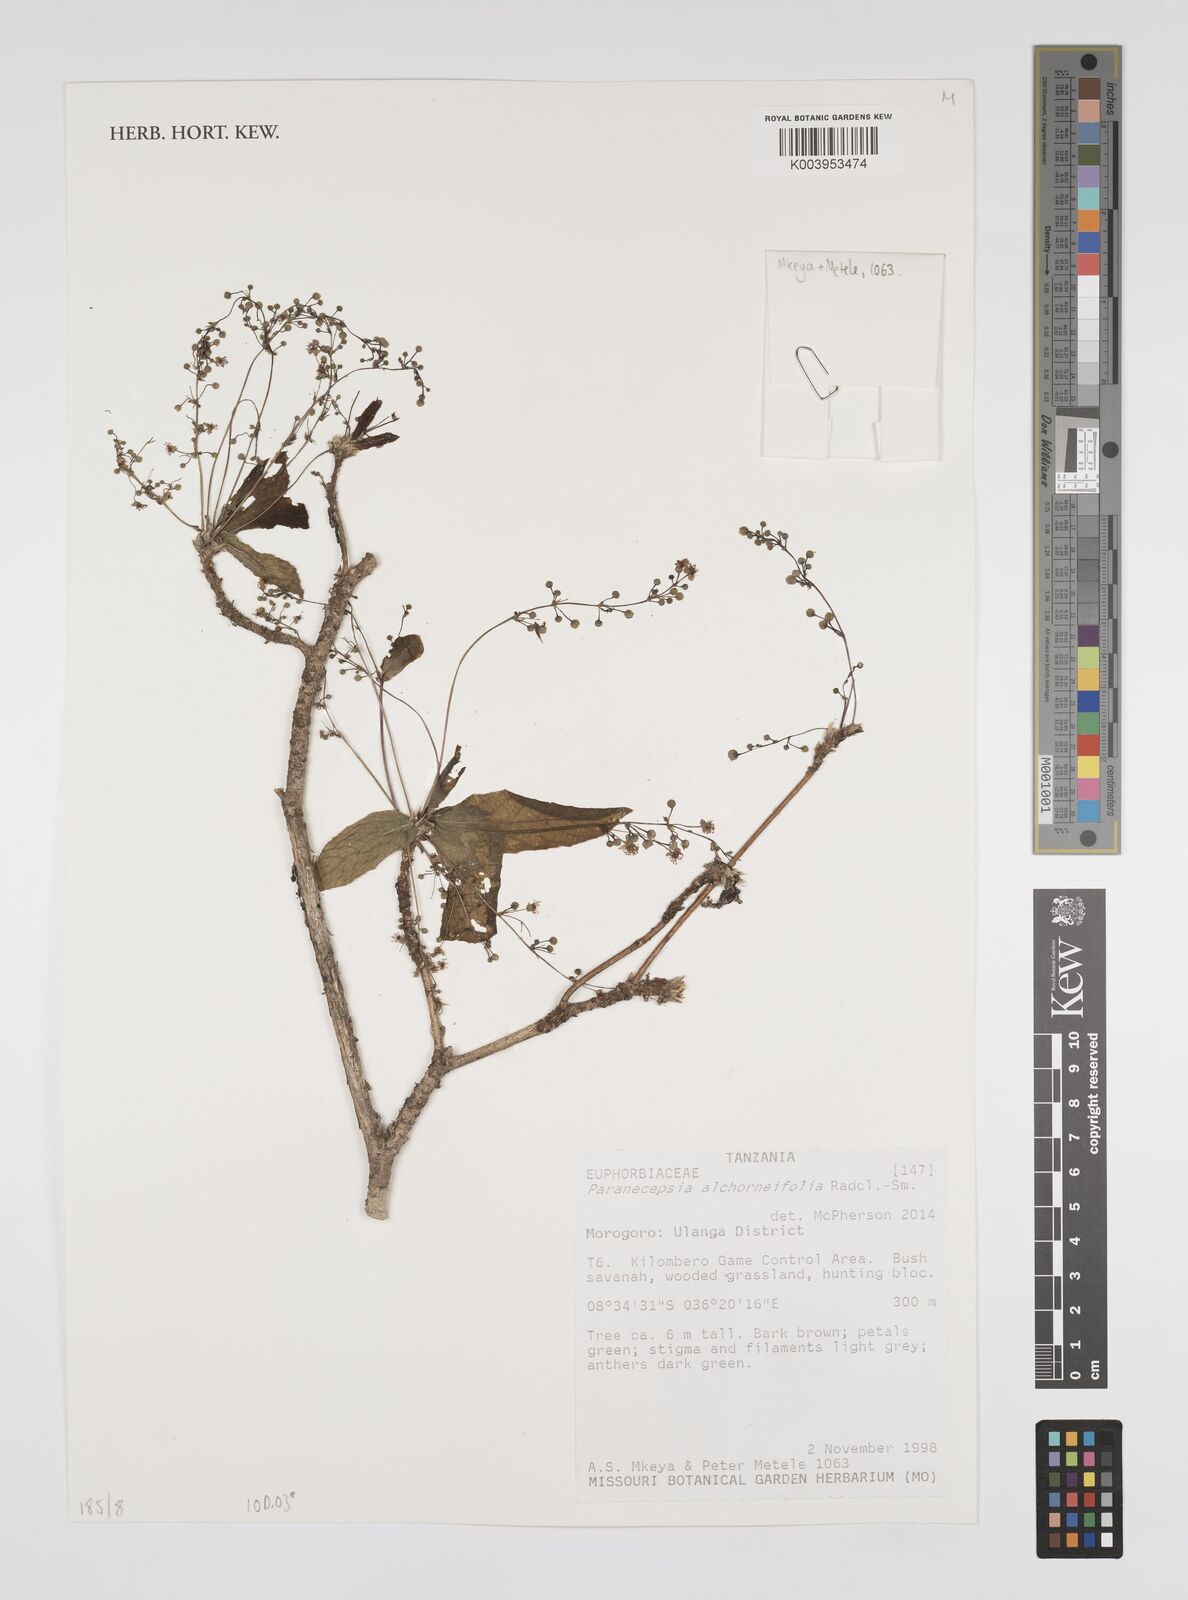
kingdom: Plantae
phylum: Tracheophyta
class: Magnoliopsida
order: Malpighiales
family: Euphorbiaceae
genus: Paranecepsia
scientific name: Paranecepsia alchorneifolia
